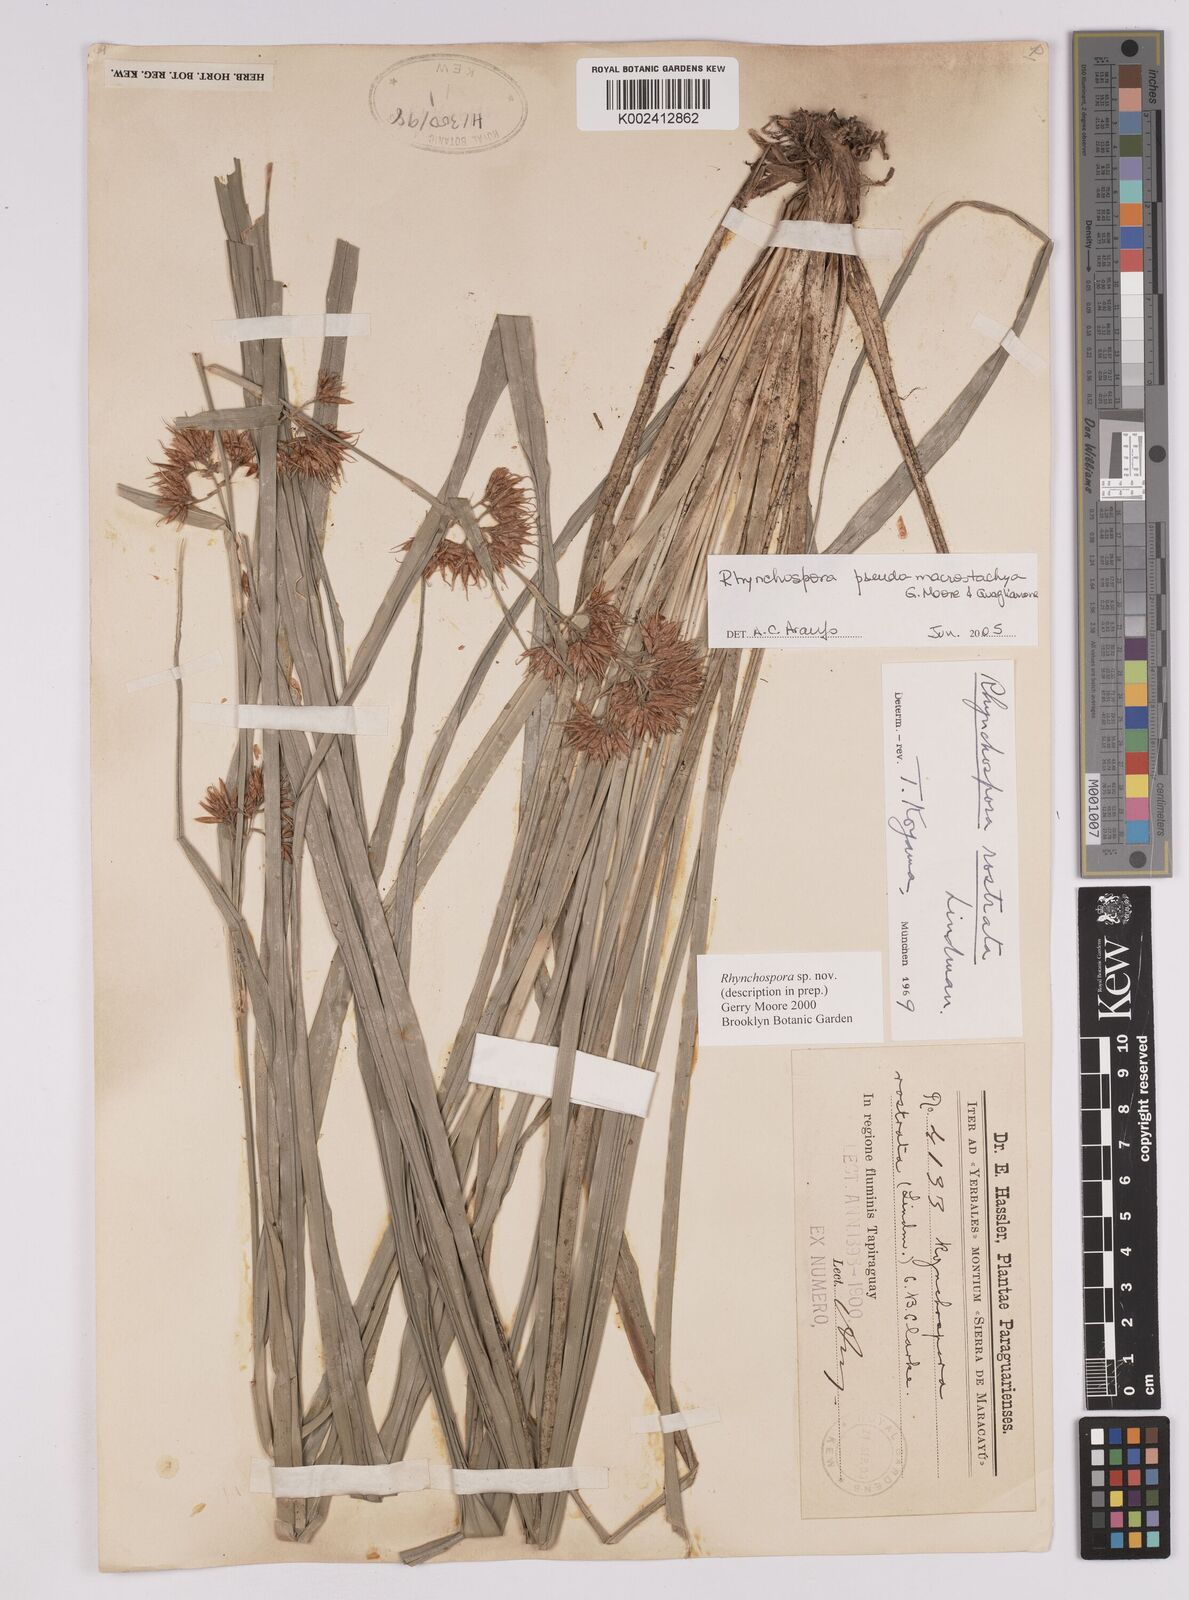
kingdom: Plantae
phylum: Tracheophyta
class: Liliopsida
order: Poales
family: Cyperaceae
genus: Rhynchospora
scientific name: Rhynchospora
